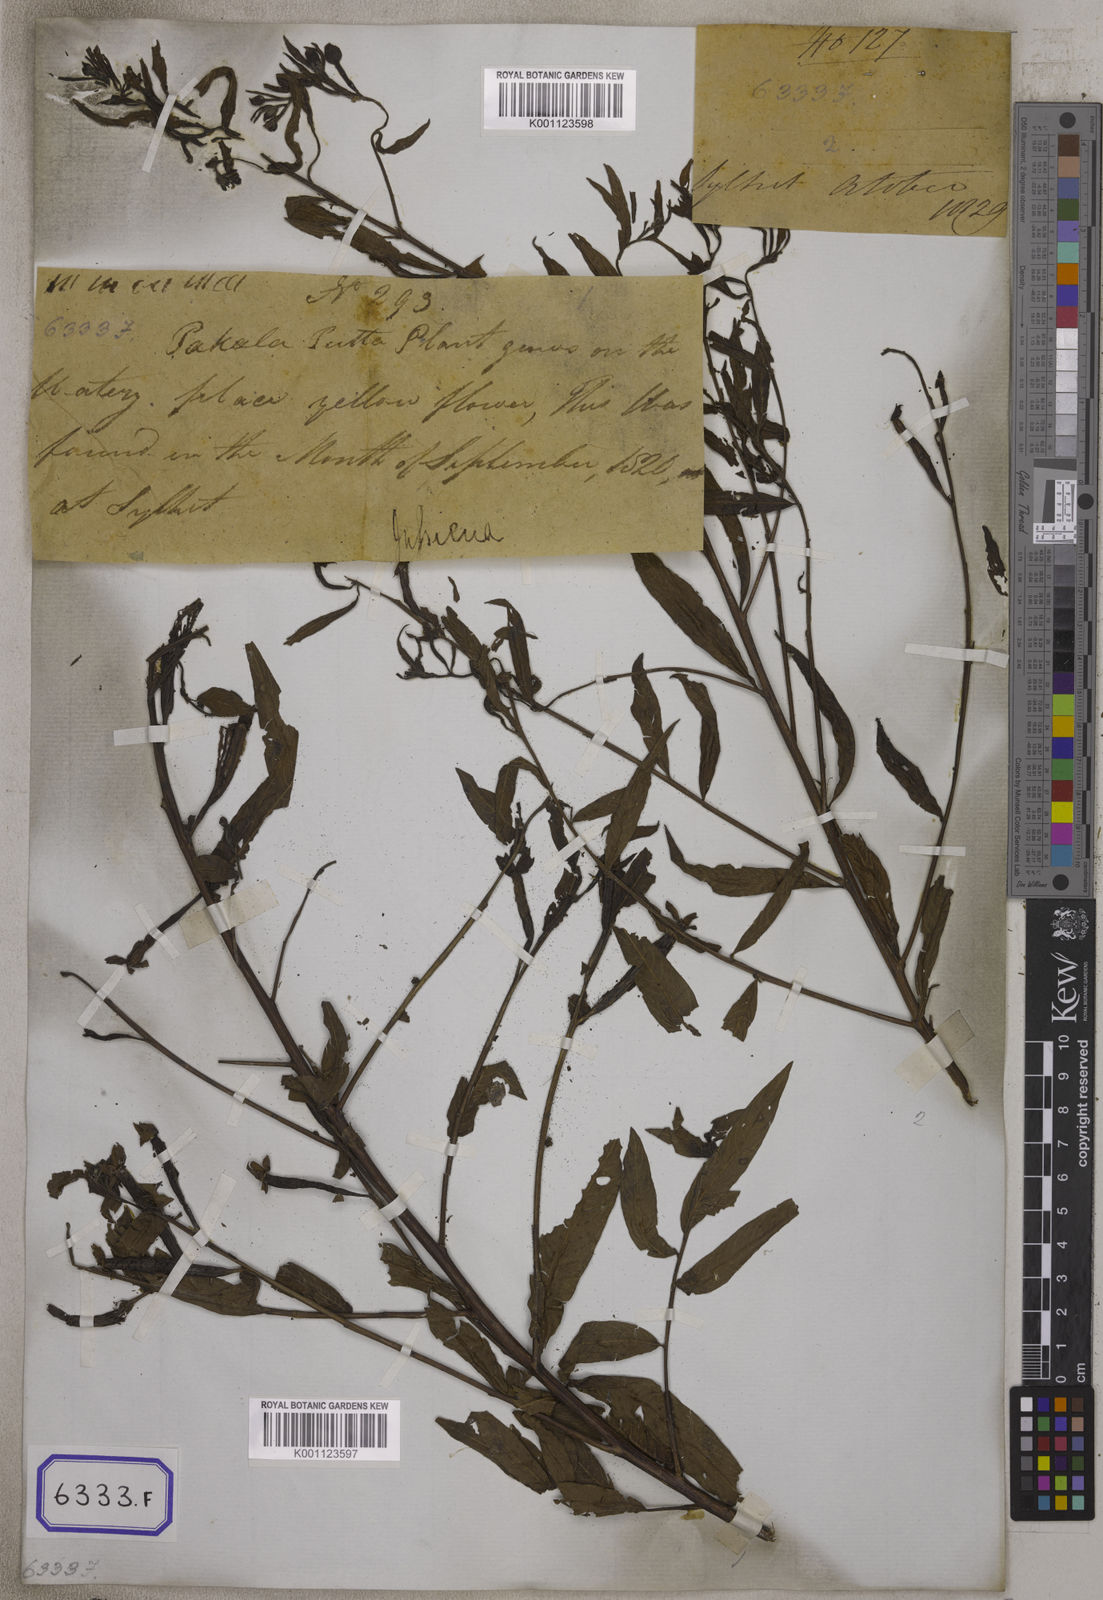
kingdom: Plantae
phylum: Tracheophyta
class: Magnoliopsida
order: Myrtales
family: Onagraceae
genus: Ludwigia
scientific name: Ludwigia octovalvis
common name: Water-primrose
